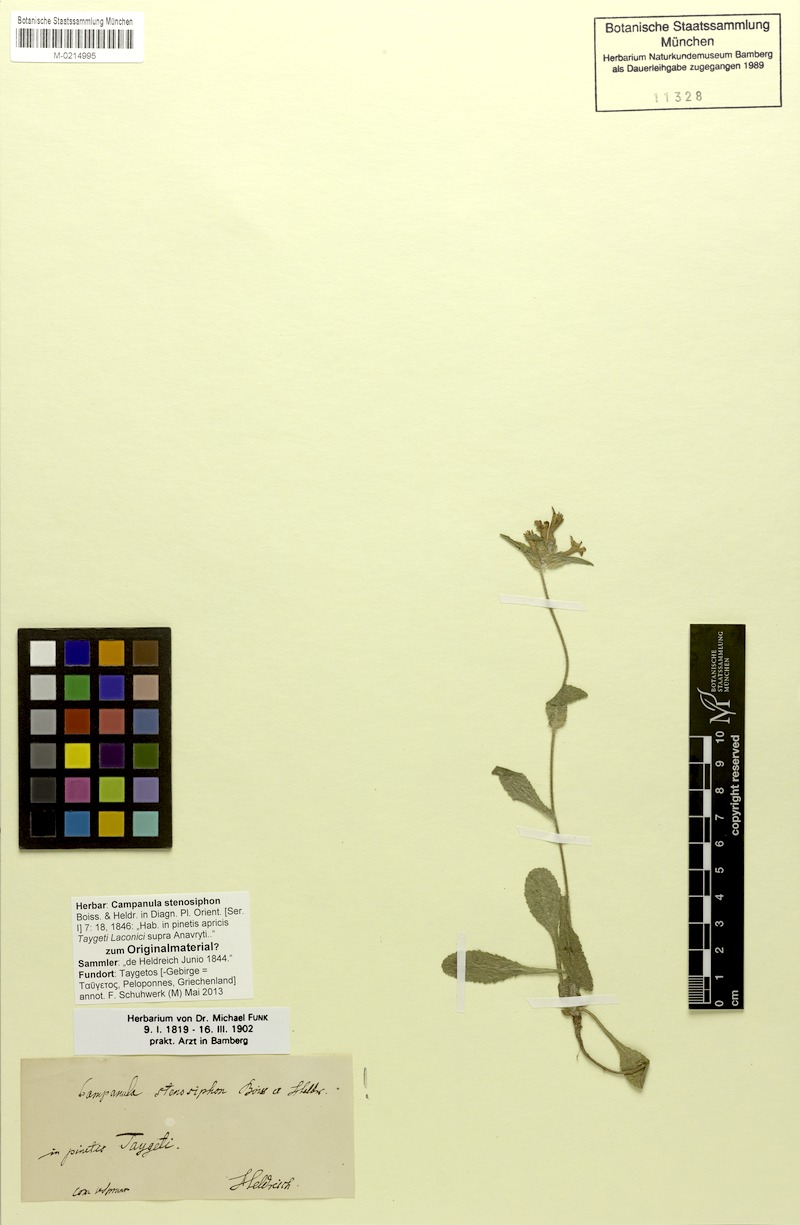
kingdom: Plantae
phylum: Tracheophyta
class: Magnoliopsida
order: Asterales
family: Campanulaceae
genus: Campanula
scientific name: Campanula stenosiphon
